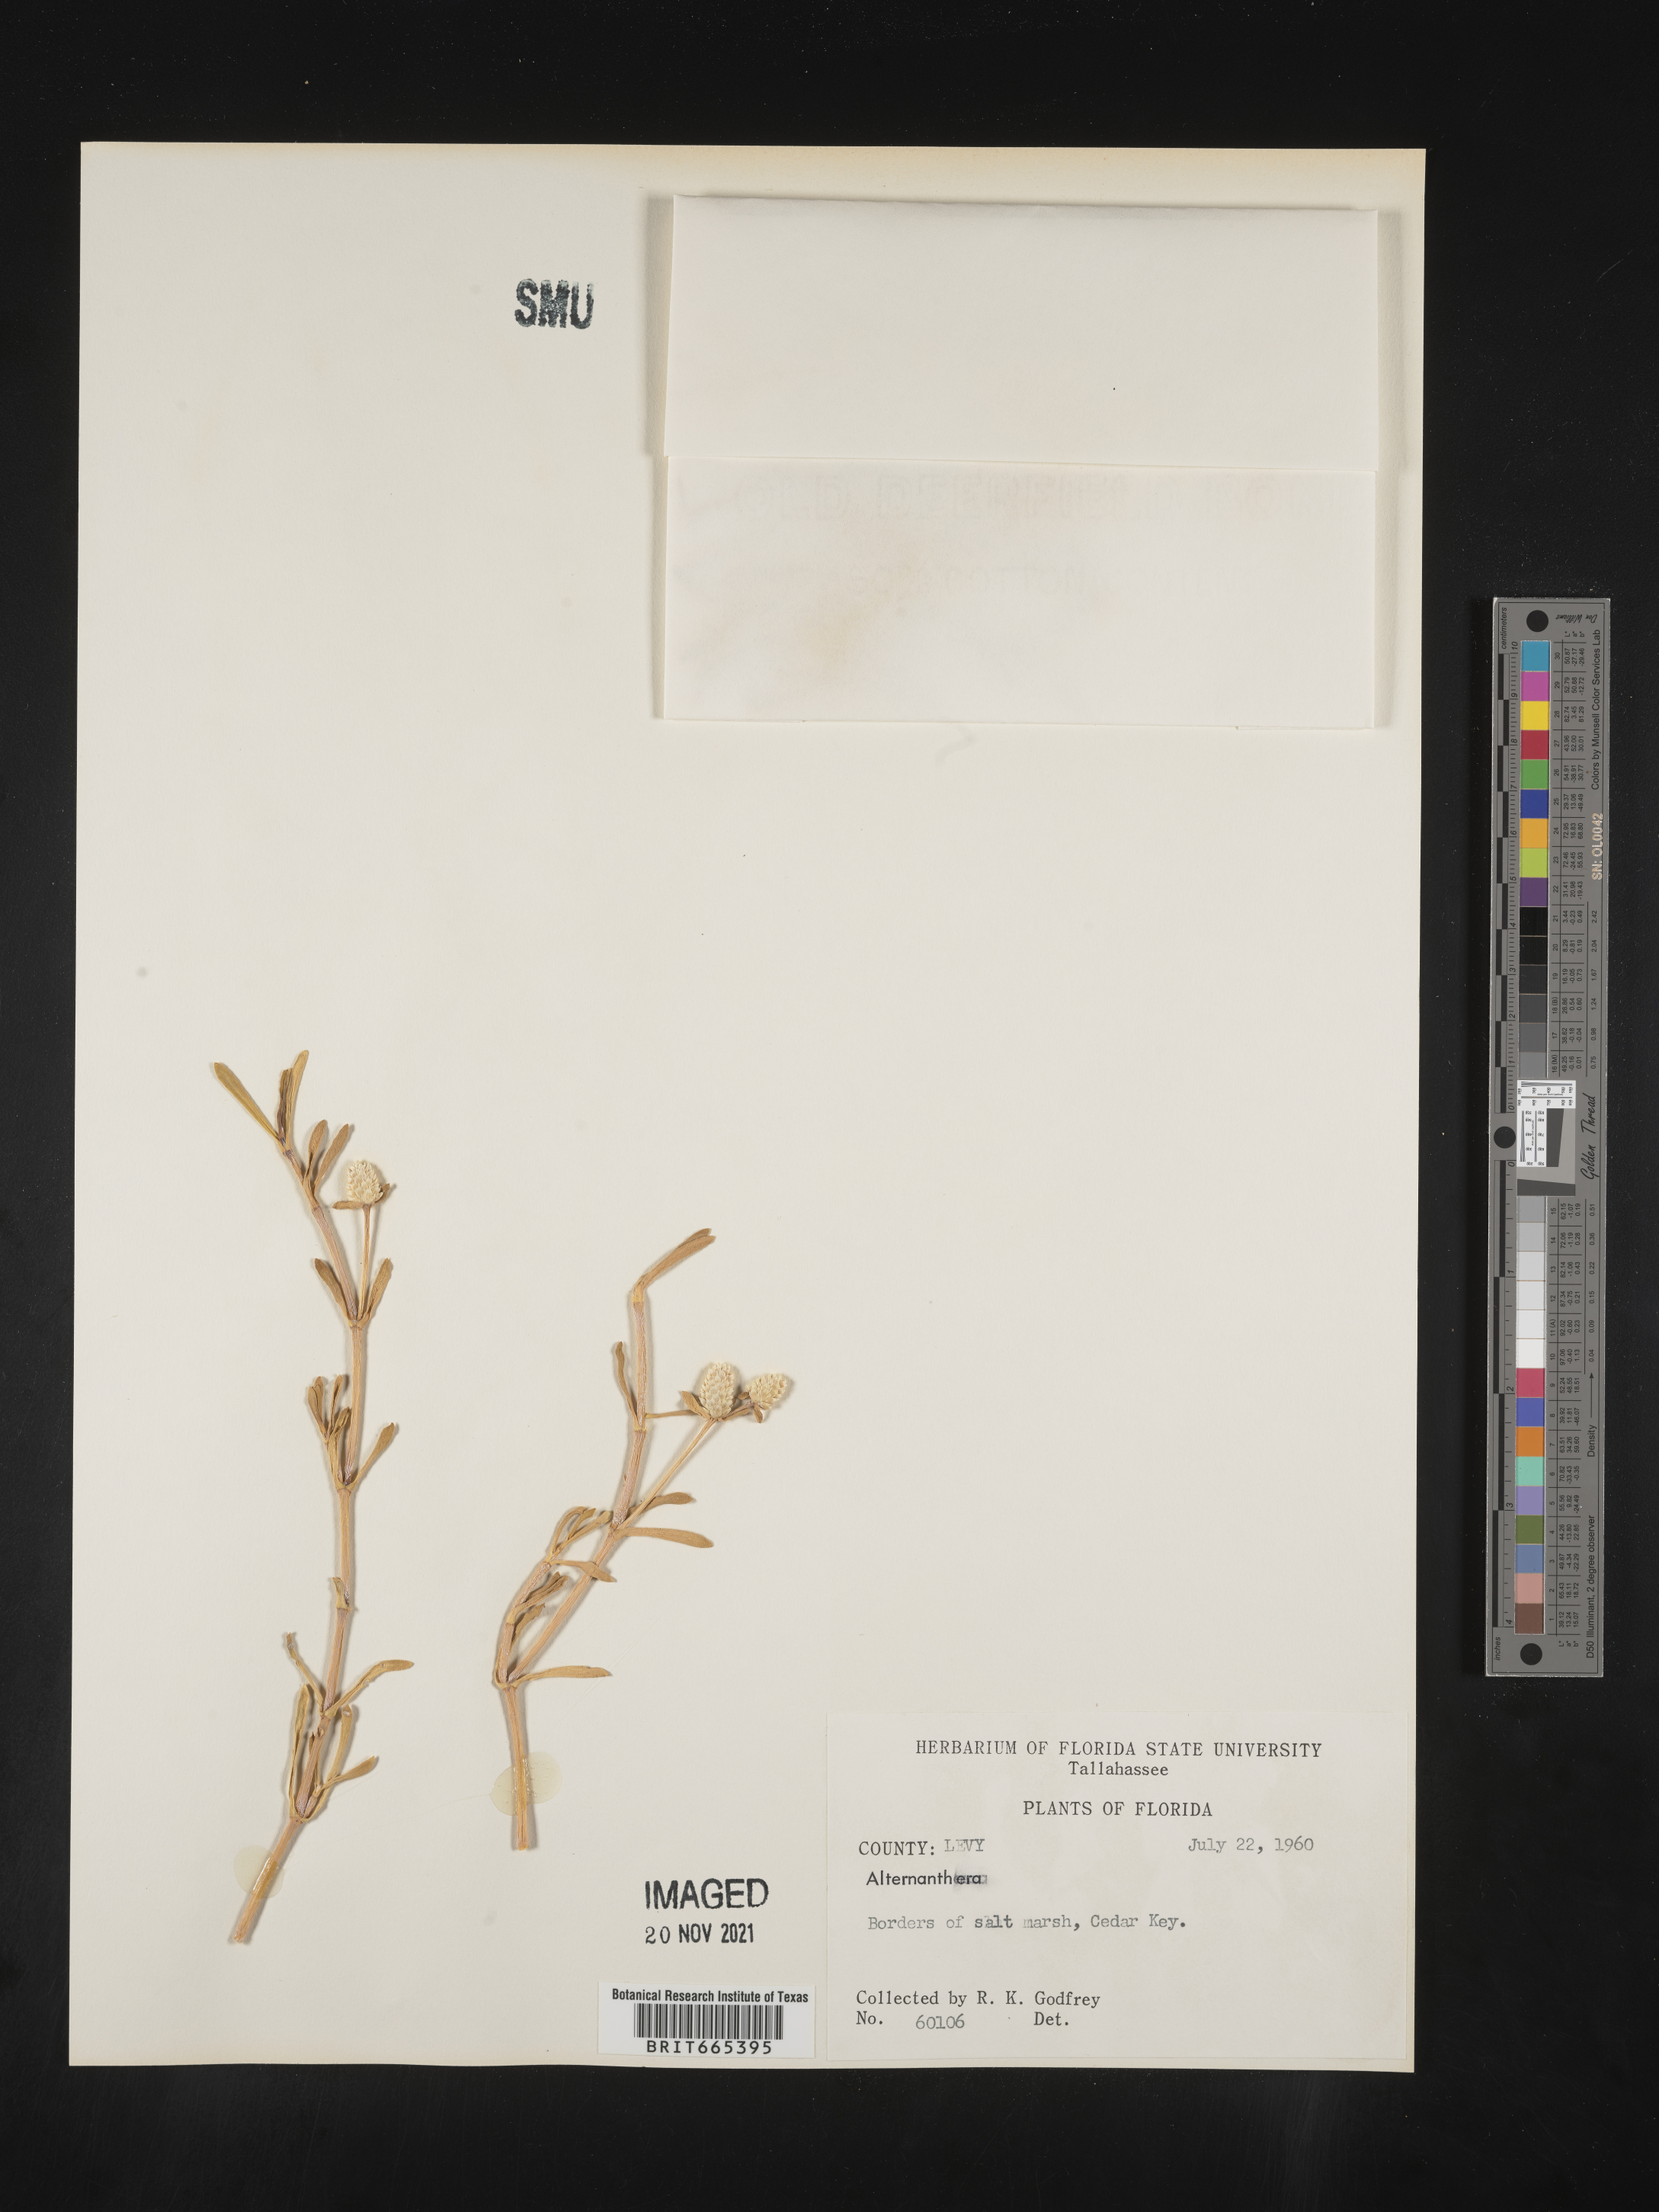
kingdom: Plantae
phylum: Tracheophyta
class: Magnoliopsida
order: Caryophyllales
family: Amaranthaceae
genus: Gomphrena
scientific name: Gomphrena
